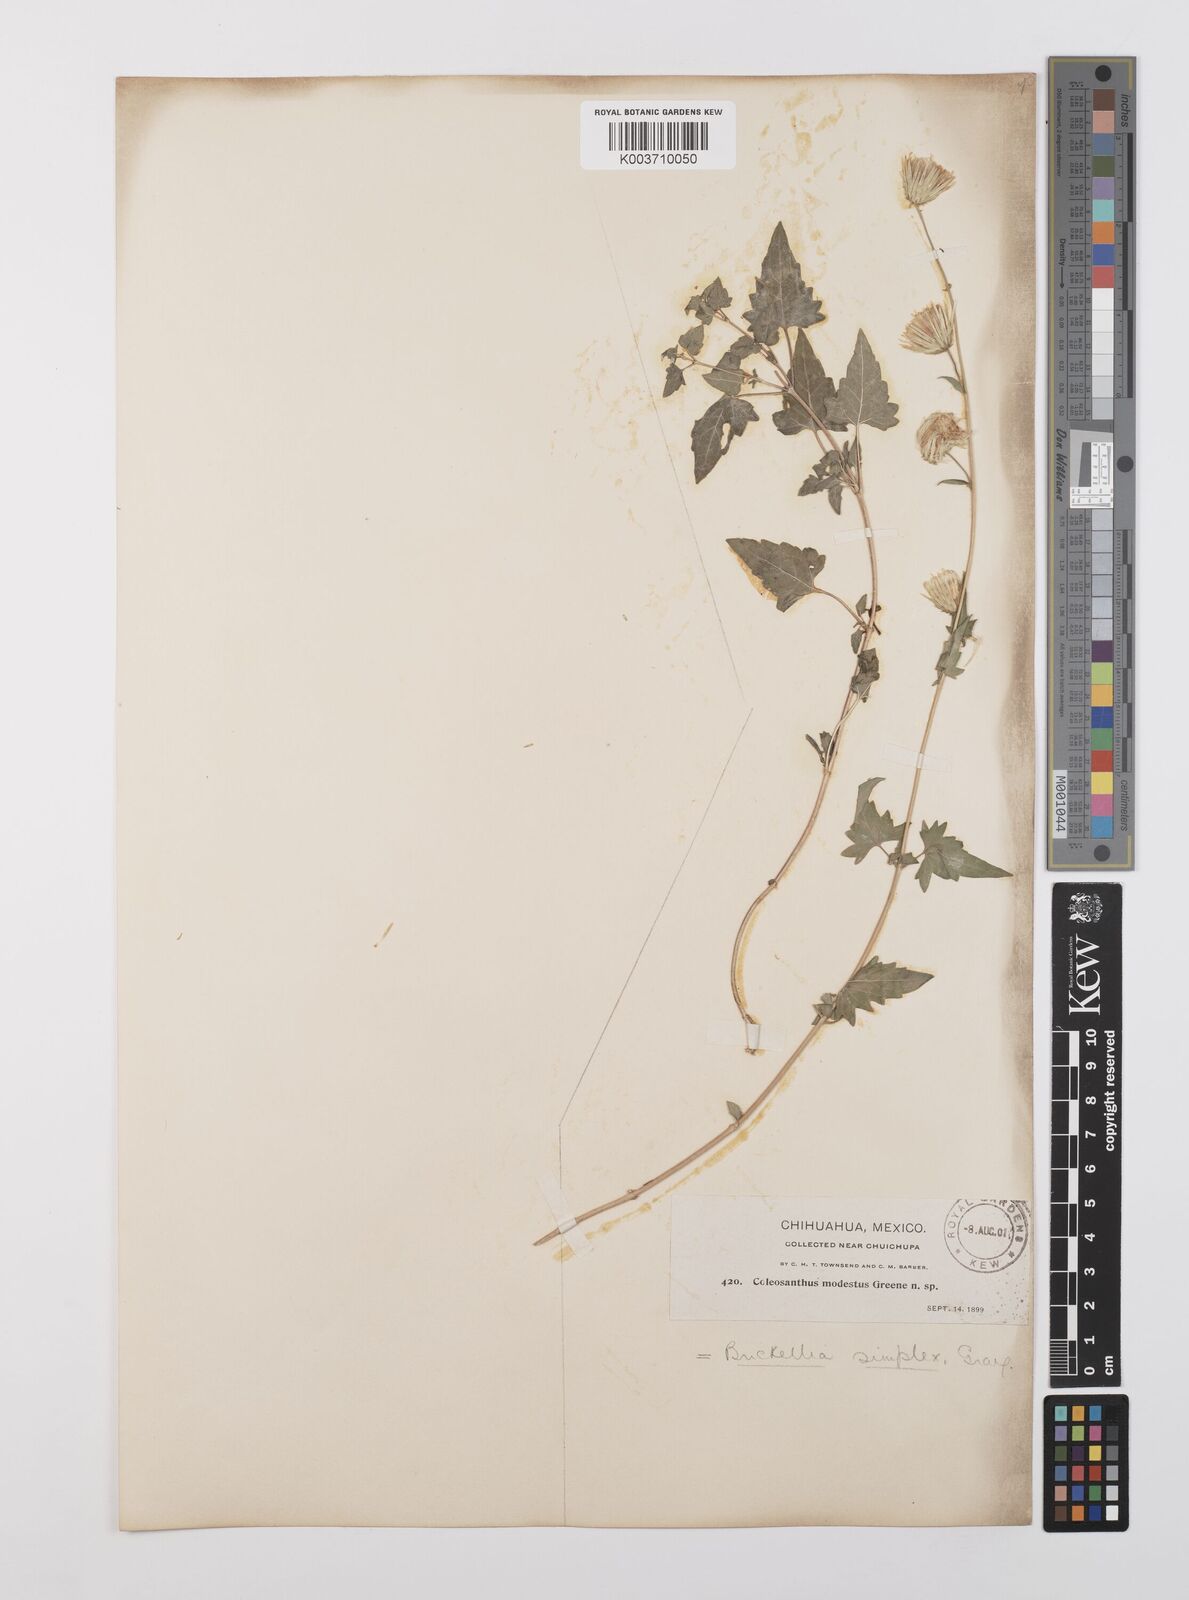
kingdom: Plantae
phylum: Tracheophyta
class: Magnoliopsida
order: Asterales
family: Asteraceae
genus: Brickellia
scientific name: Brickellia simplex
